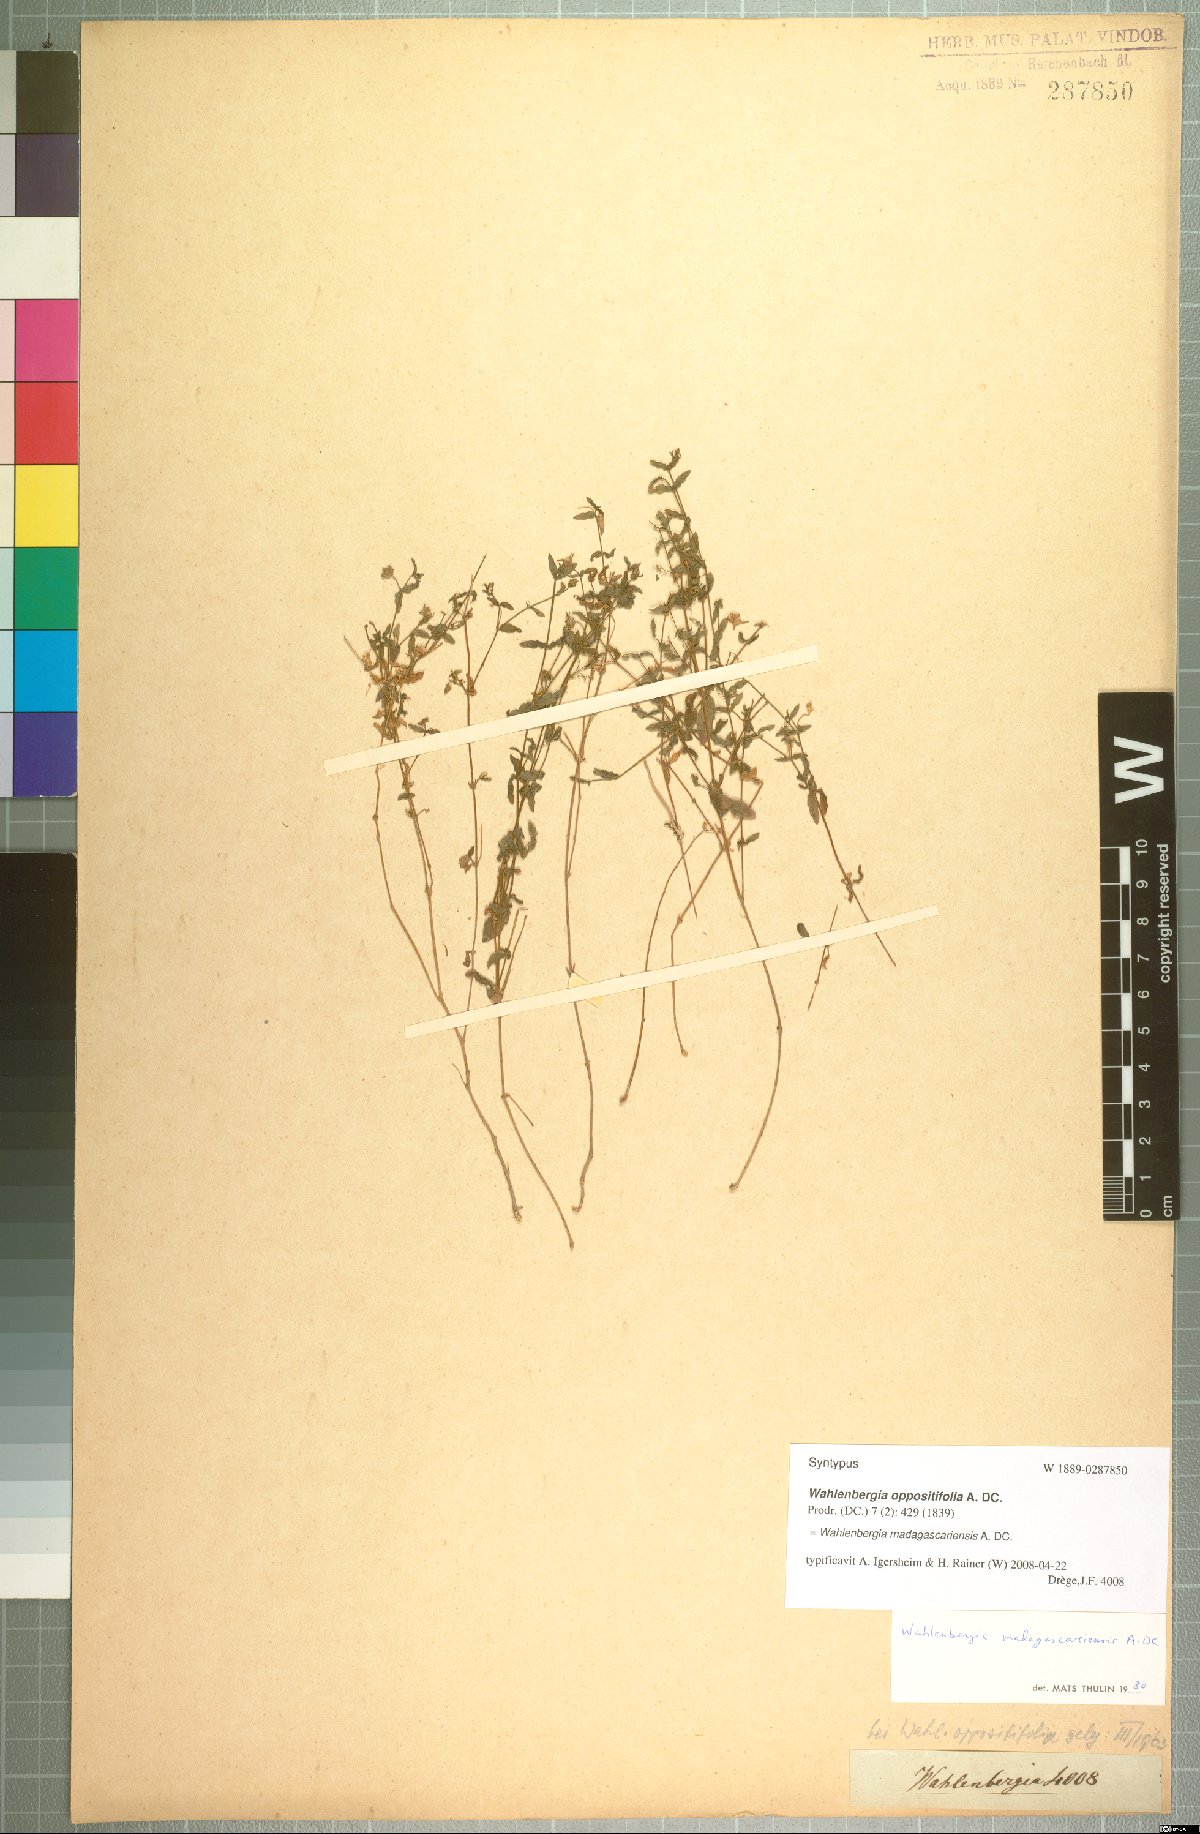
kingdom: Plantae
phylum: Tracheophyta
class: Magnoliopsida
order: Asterales
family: Campanulaceae
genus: Wahlenbergia
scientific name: Wahlenbergia madagascariensis
